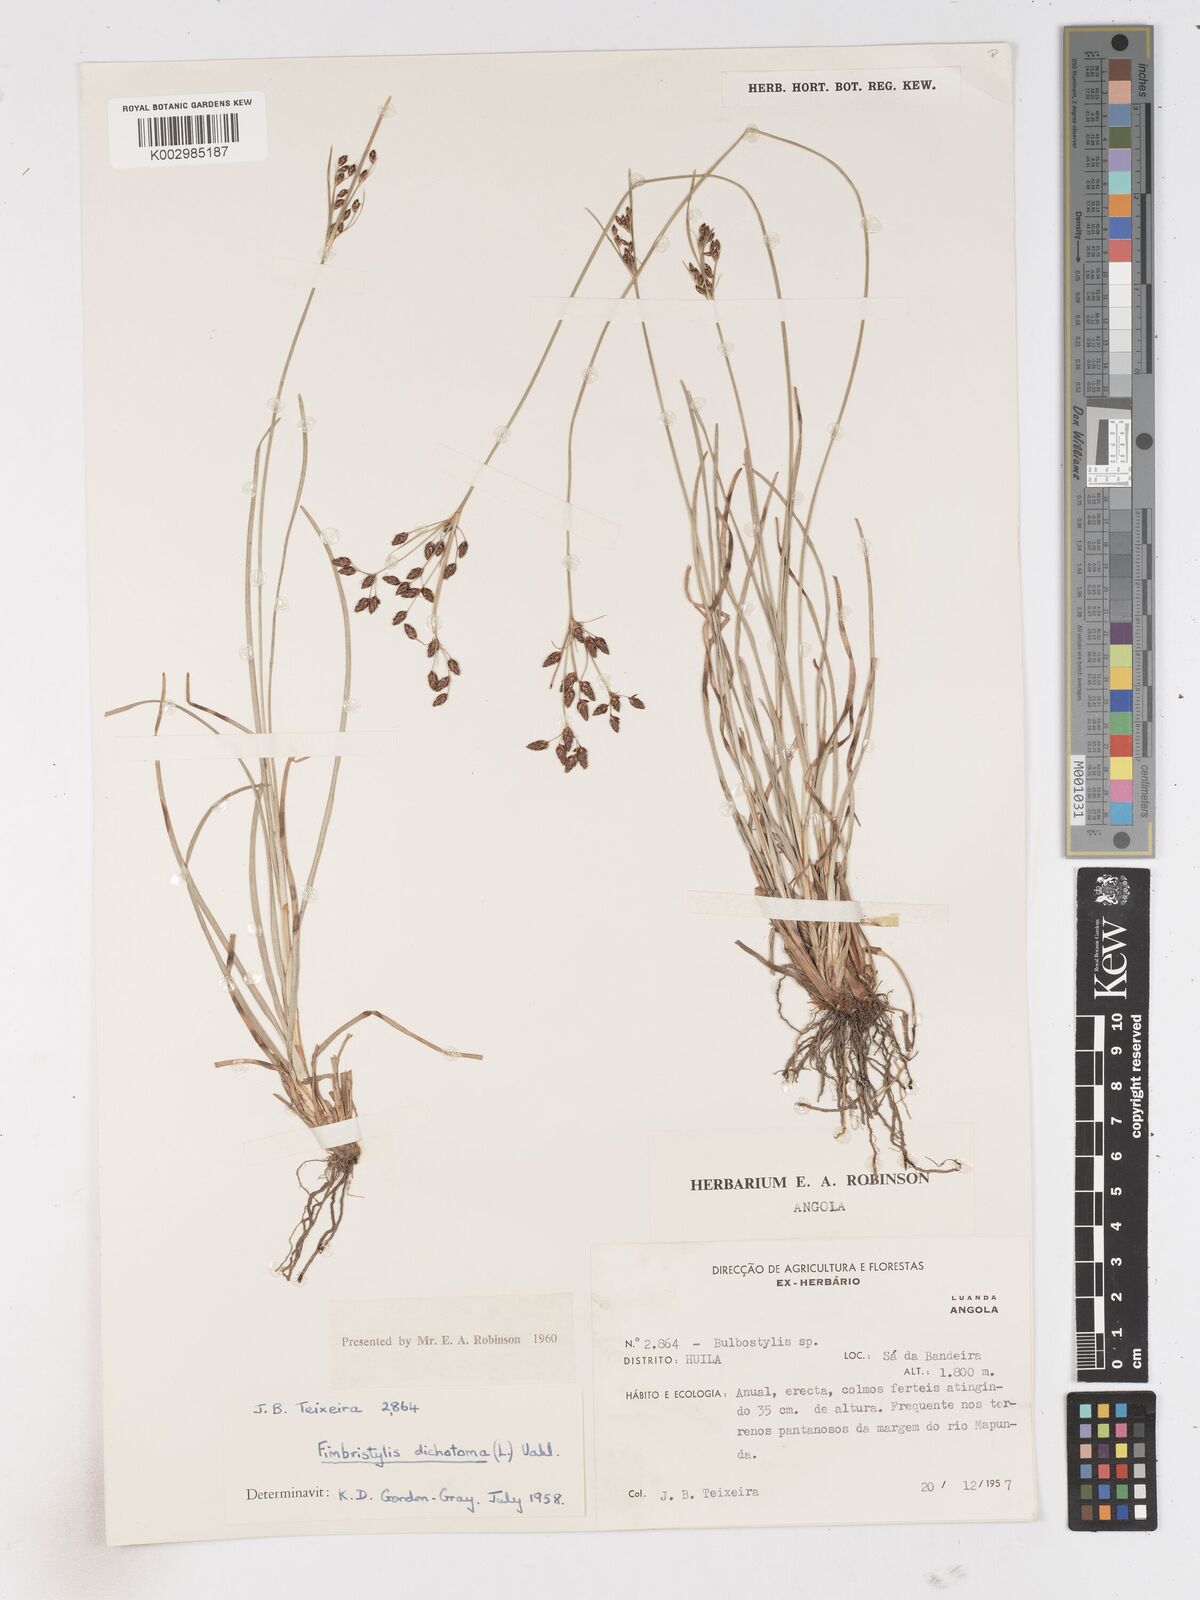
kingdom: Plantae
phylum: Tracheophyta
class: Liliopsida
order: Poales
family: Cyperaceae
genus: Fimbristylis
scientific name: Fimbristylis dichotoma
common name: Forked fimbry
